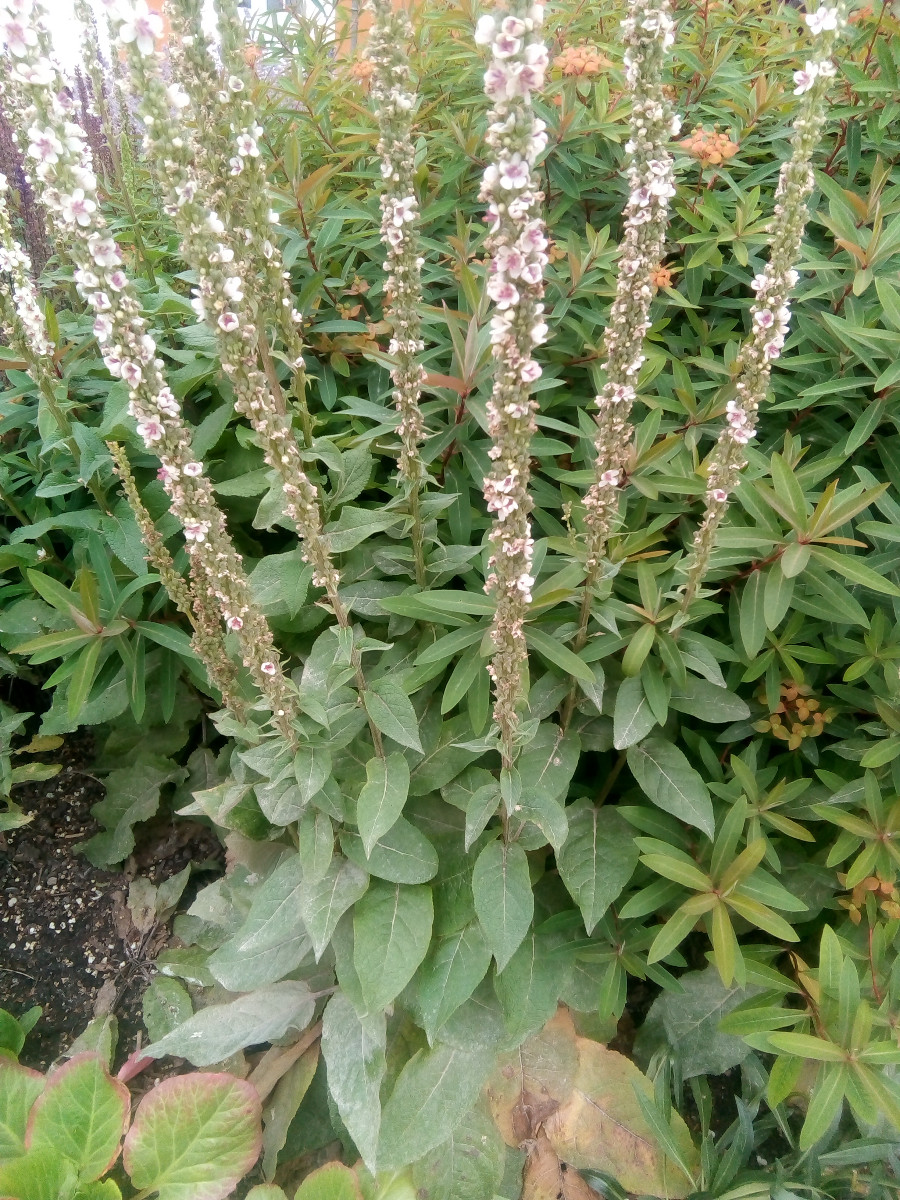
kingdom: Fungi
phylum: Ascomycota
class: Leotiomycetes
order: Helotiales
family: Erysiphaceae
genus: Golovinomyces
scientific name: Golovinomyces verbasci
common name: kongelys-meldug
